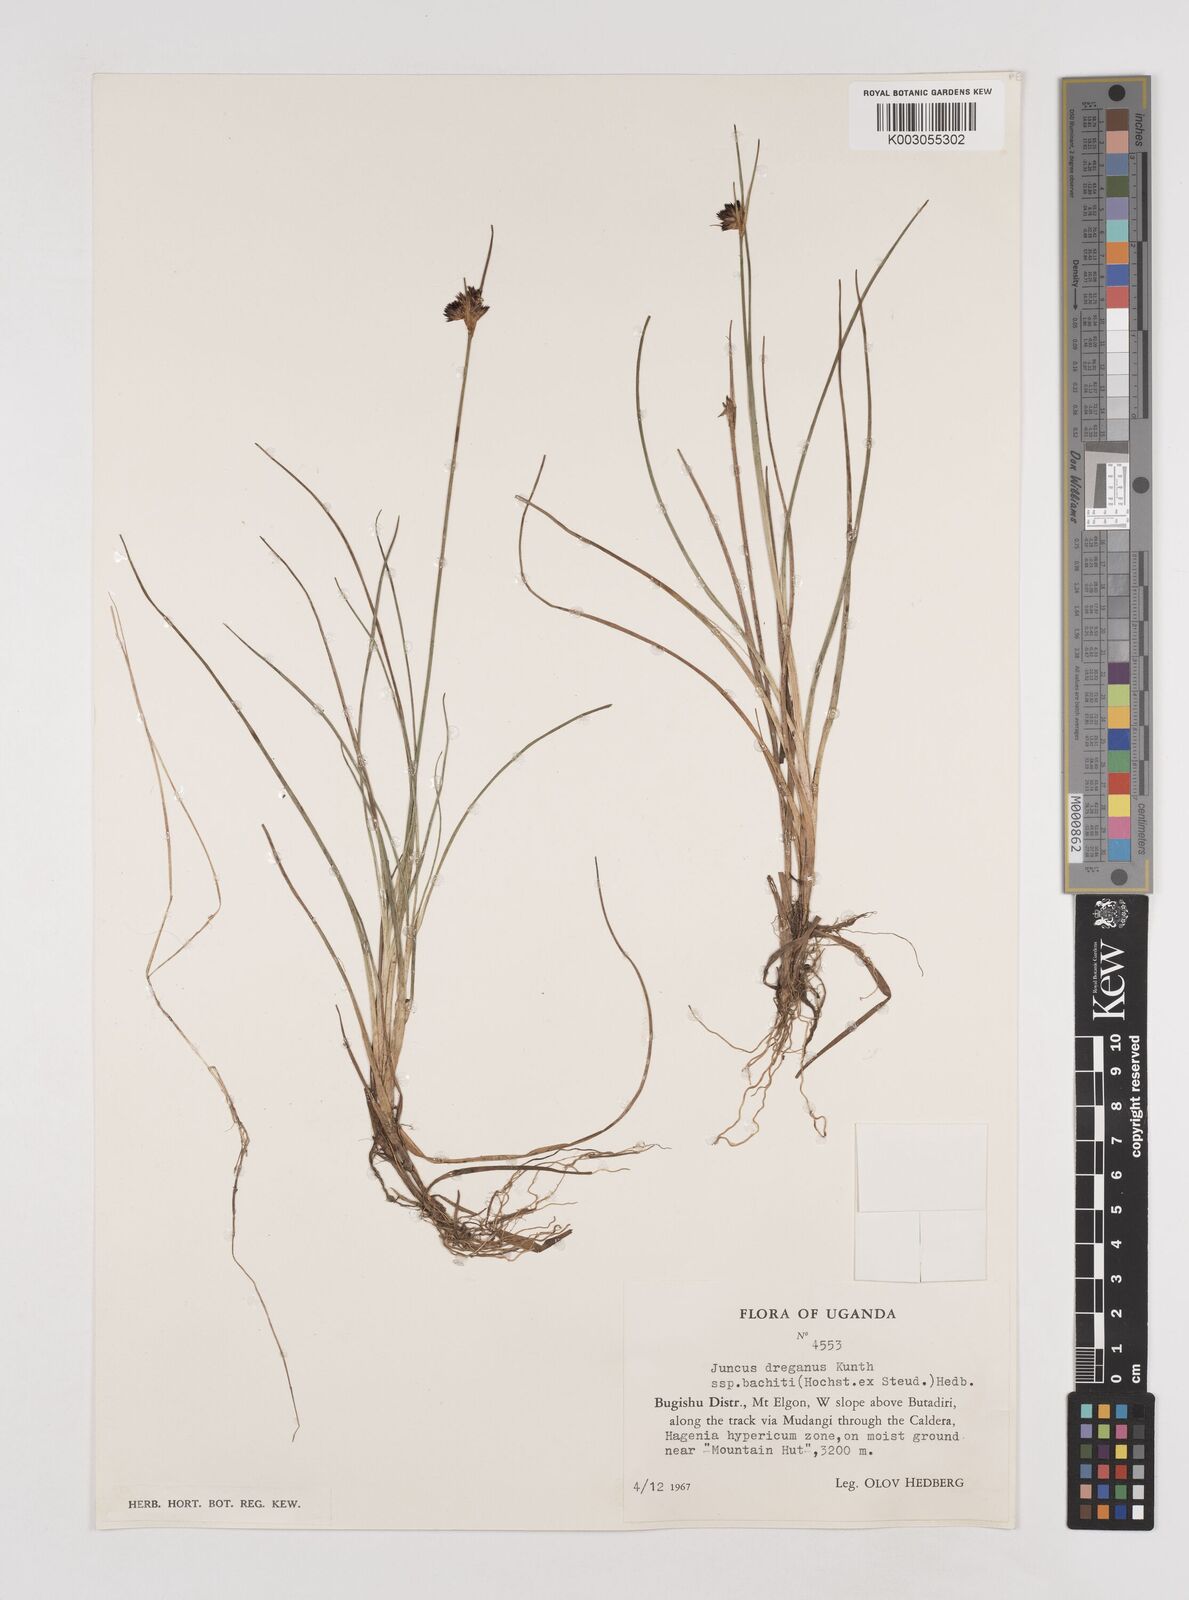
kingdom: Plantae
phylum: Tracheophyta
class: Liliopsida
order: Poales
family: Juncaceae
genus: Juncus
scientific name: Juncus dregeanus
